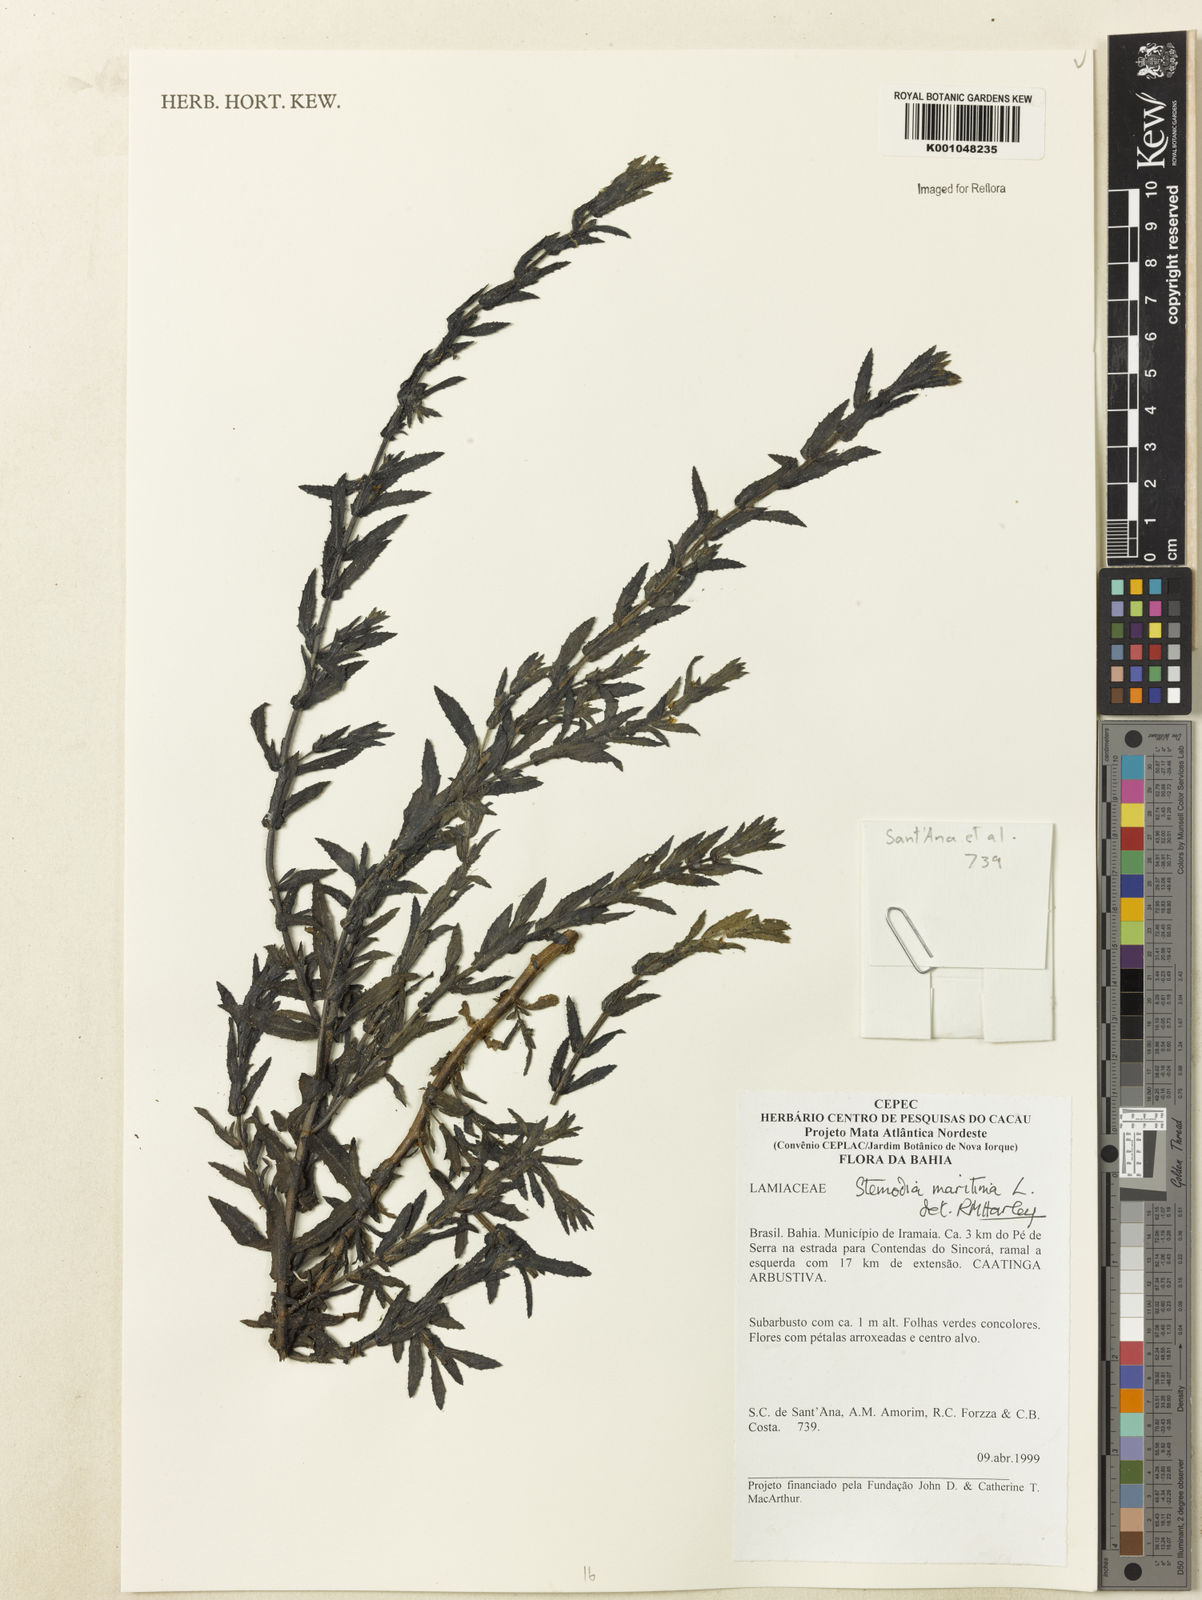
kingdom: Plantae
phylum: Tracheophyta
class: Magnoliopsida
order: Lamiales
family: Plantaginaceae
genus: Stemodia
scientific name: Stemodia maritima
